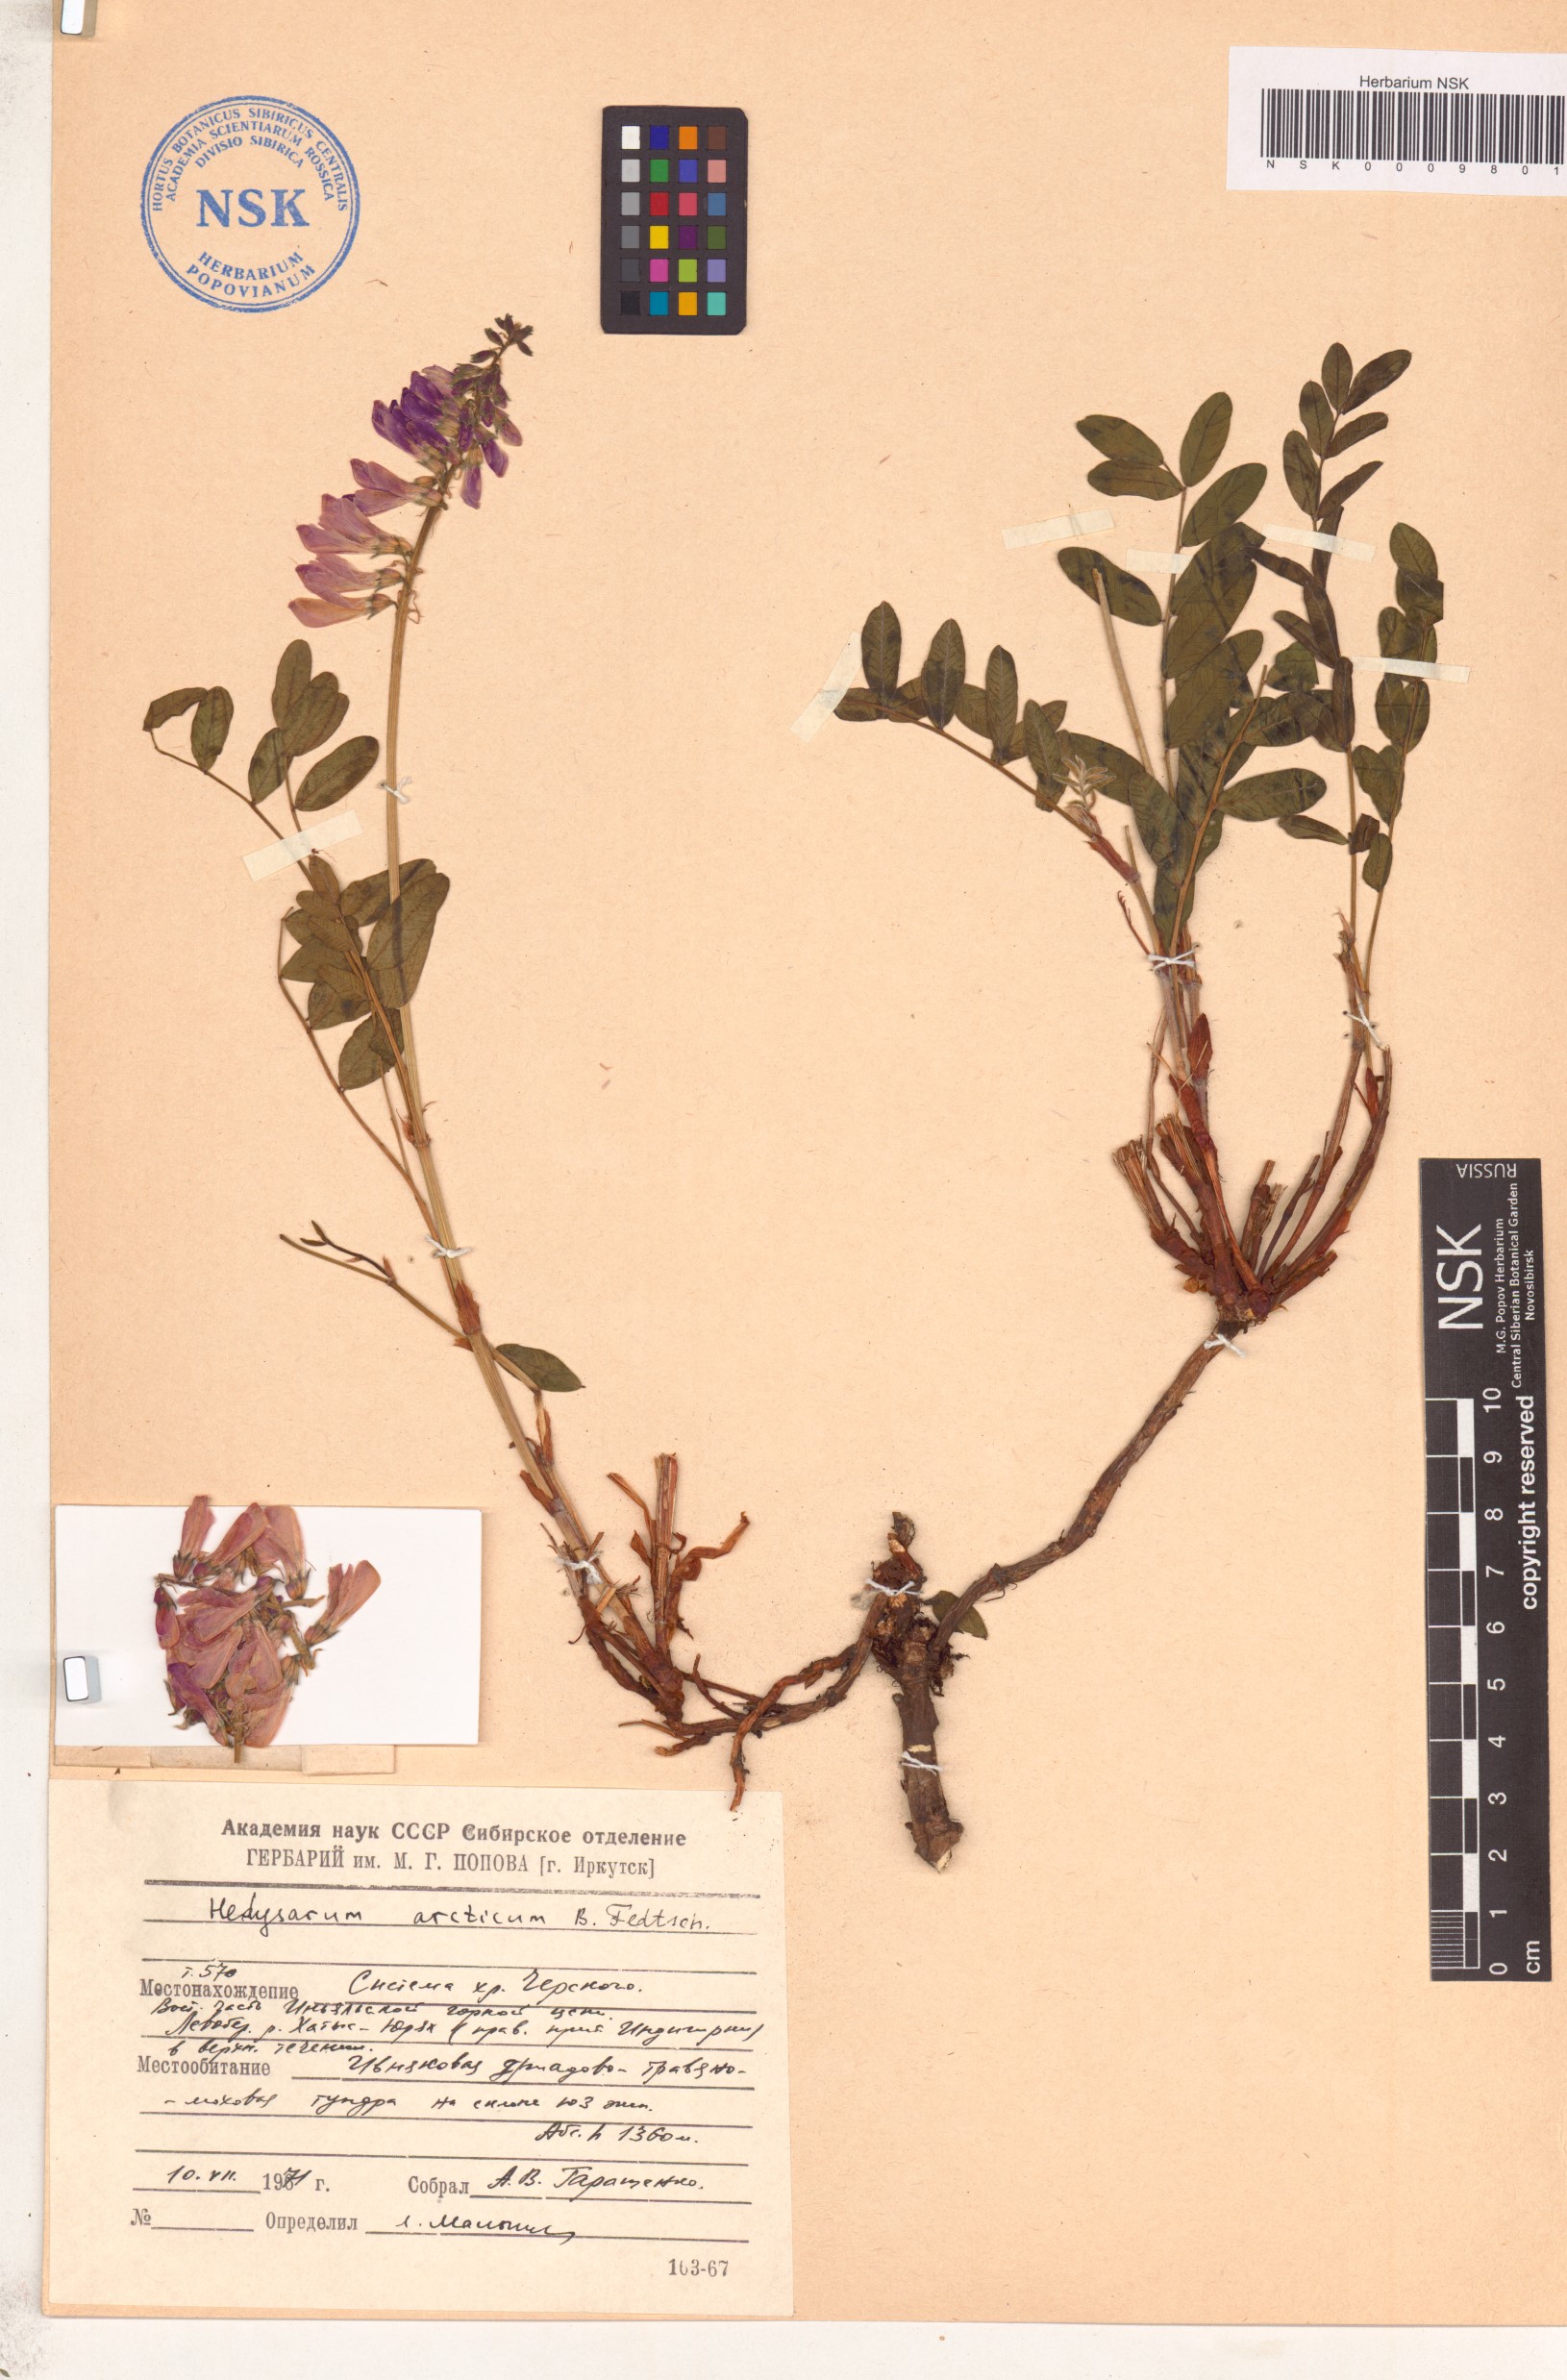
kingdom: Plantae
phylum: Tracheophyta
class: Magnoliopsida
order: Fabales
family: Fabaceae
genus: Hedysarum
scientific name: Hedysarum hedysaroides
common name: Alpine french-honeysuckle
